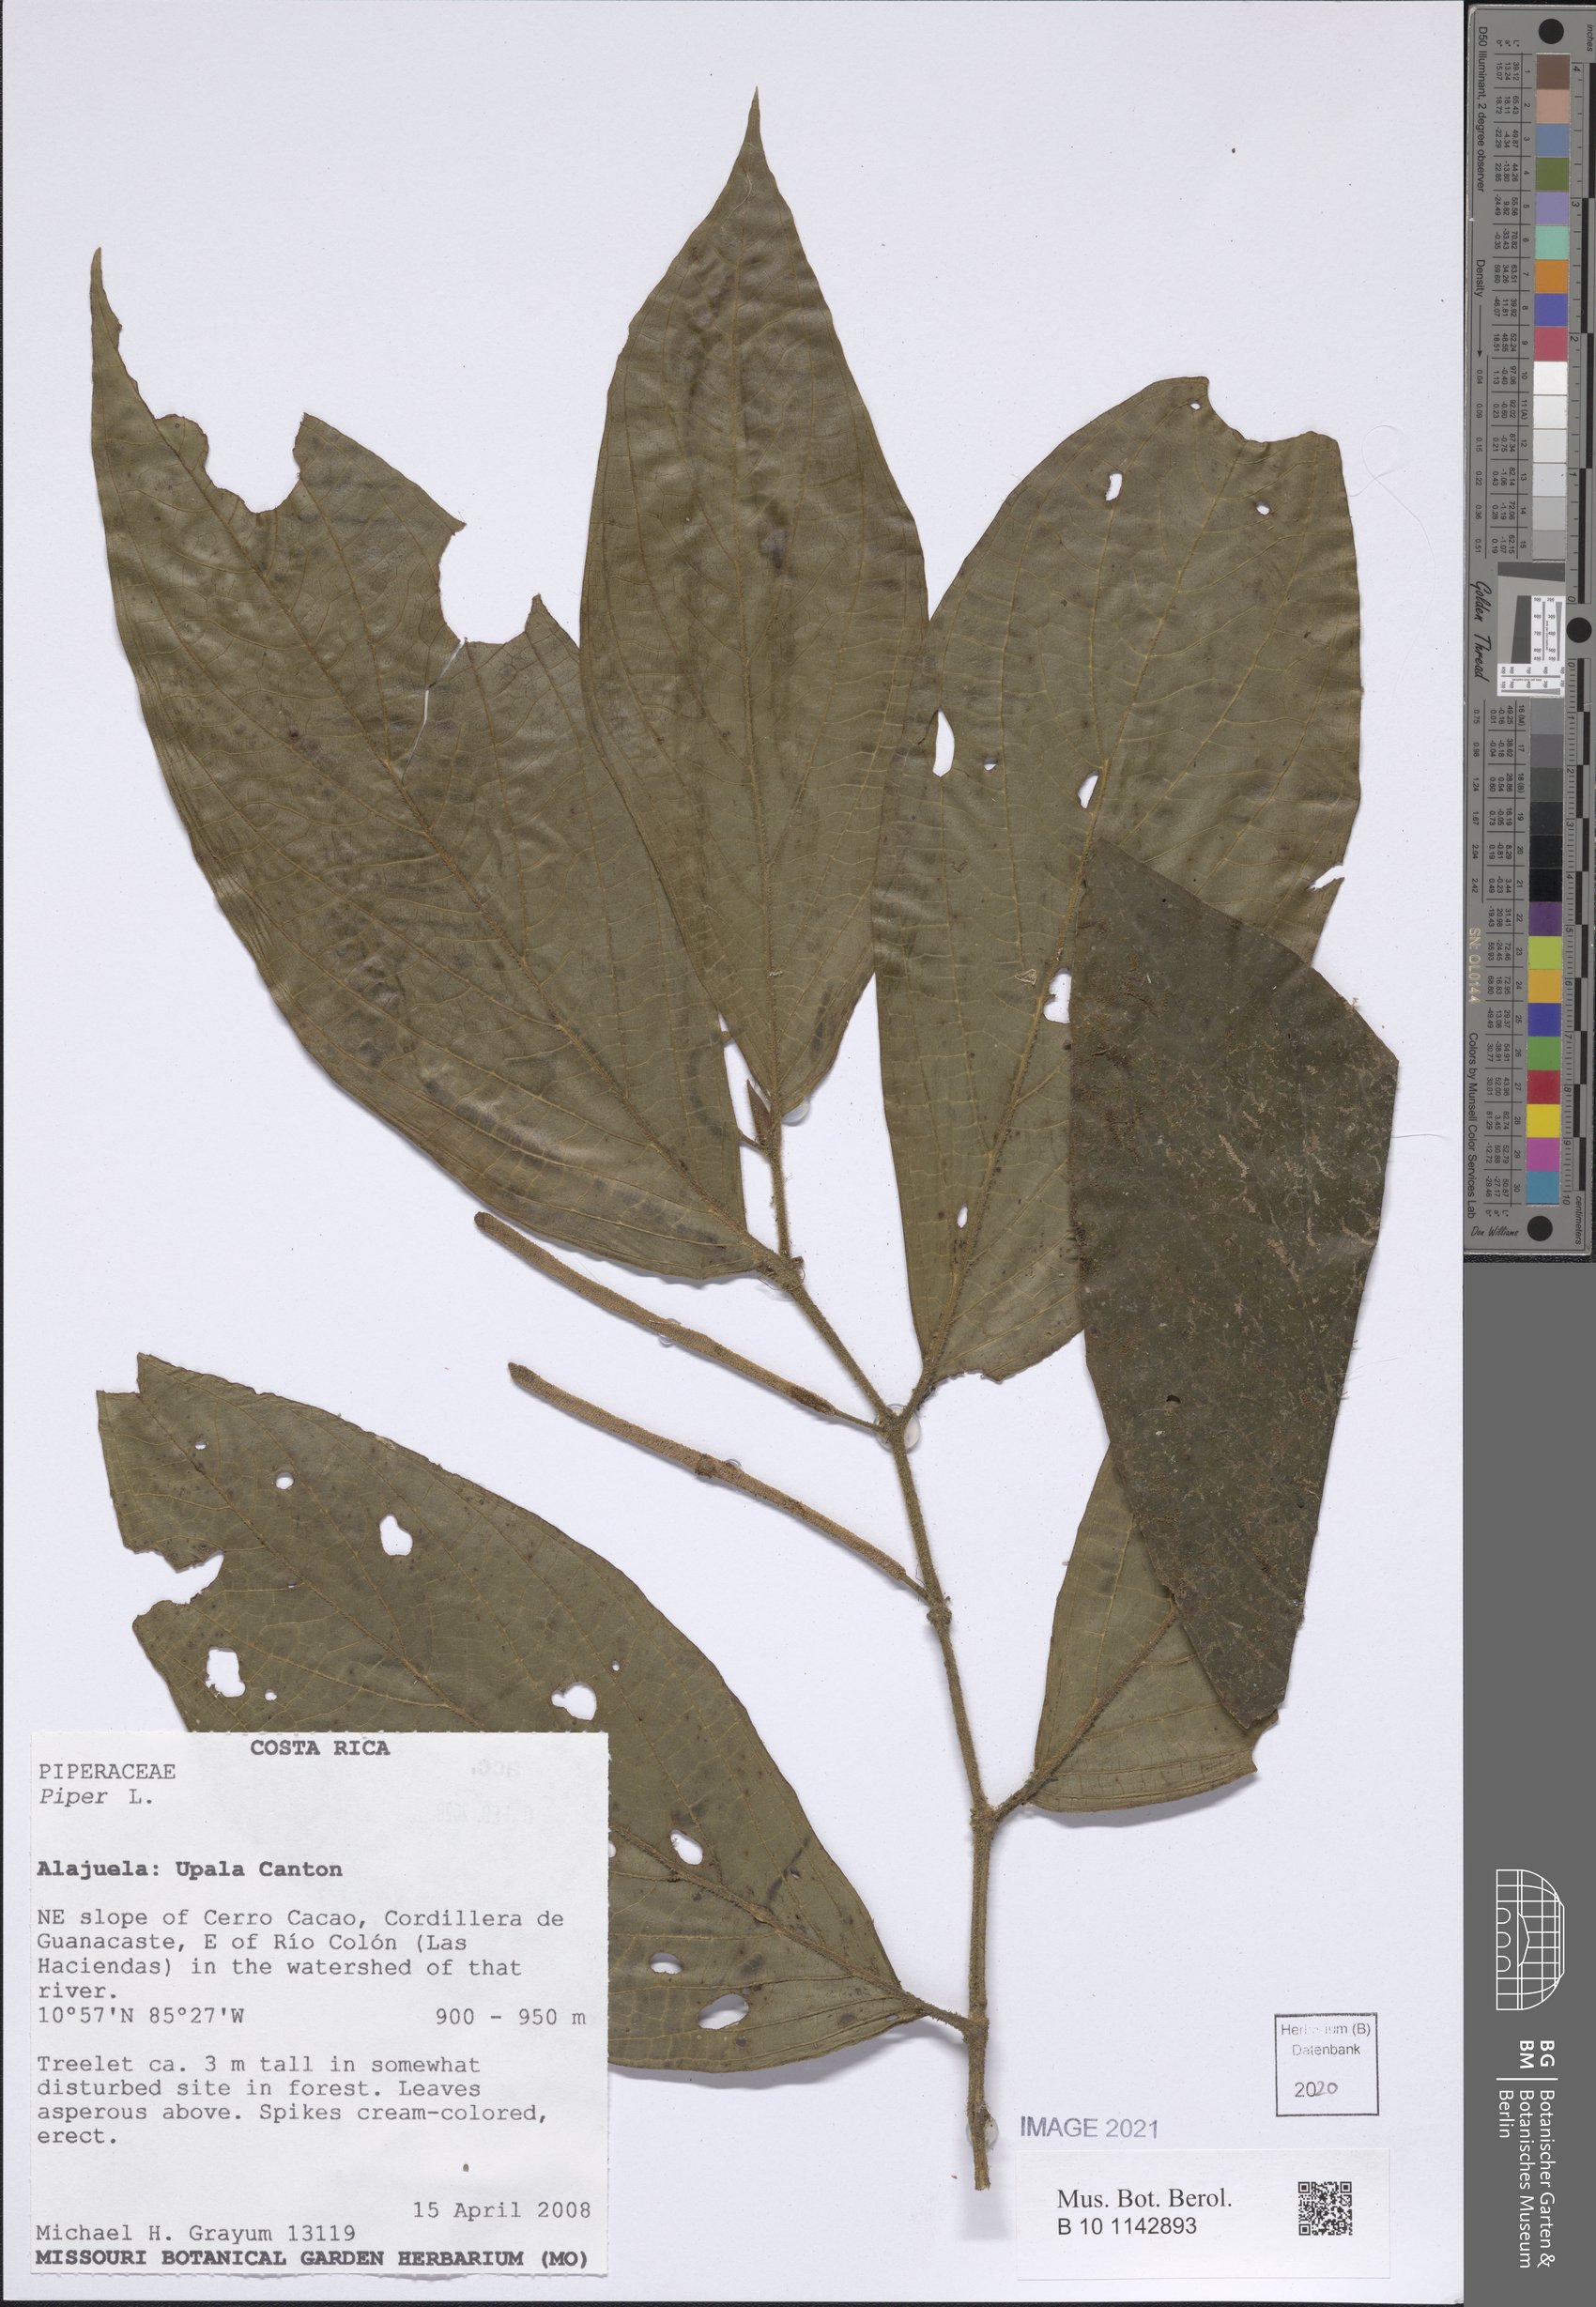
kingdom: Plantae
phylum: Tracheophyta
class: Magnoliopsida
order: Piperales
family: Piperaceae
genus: Piper
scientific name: Piper
